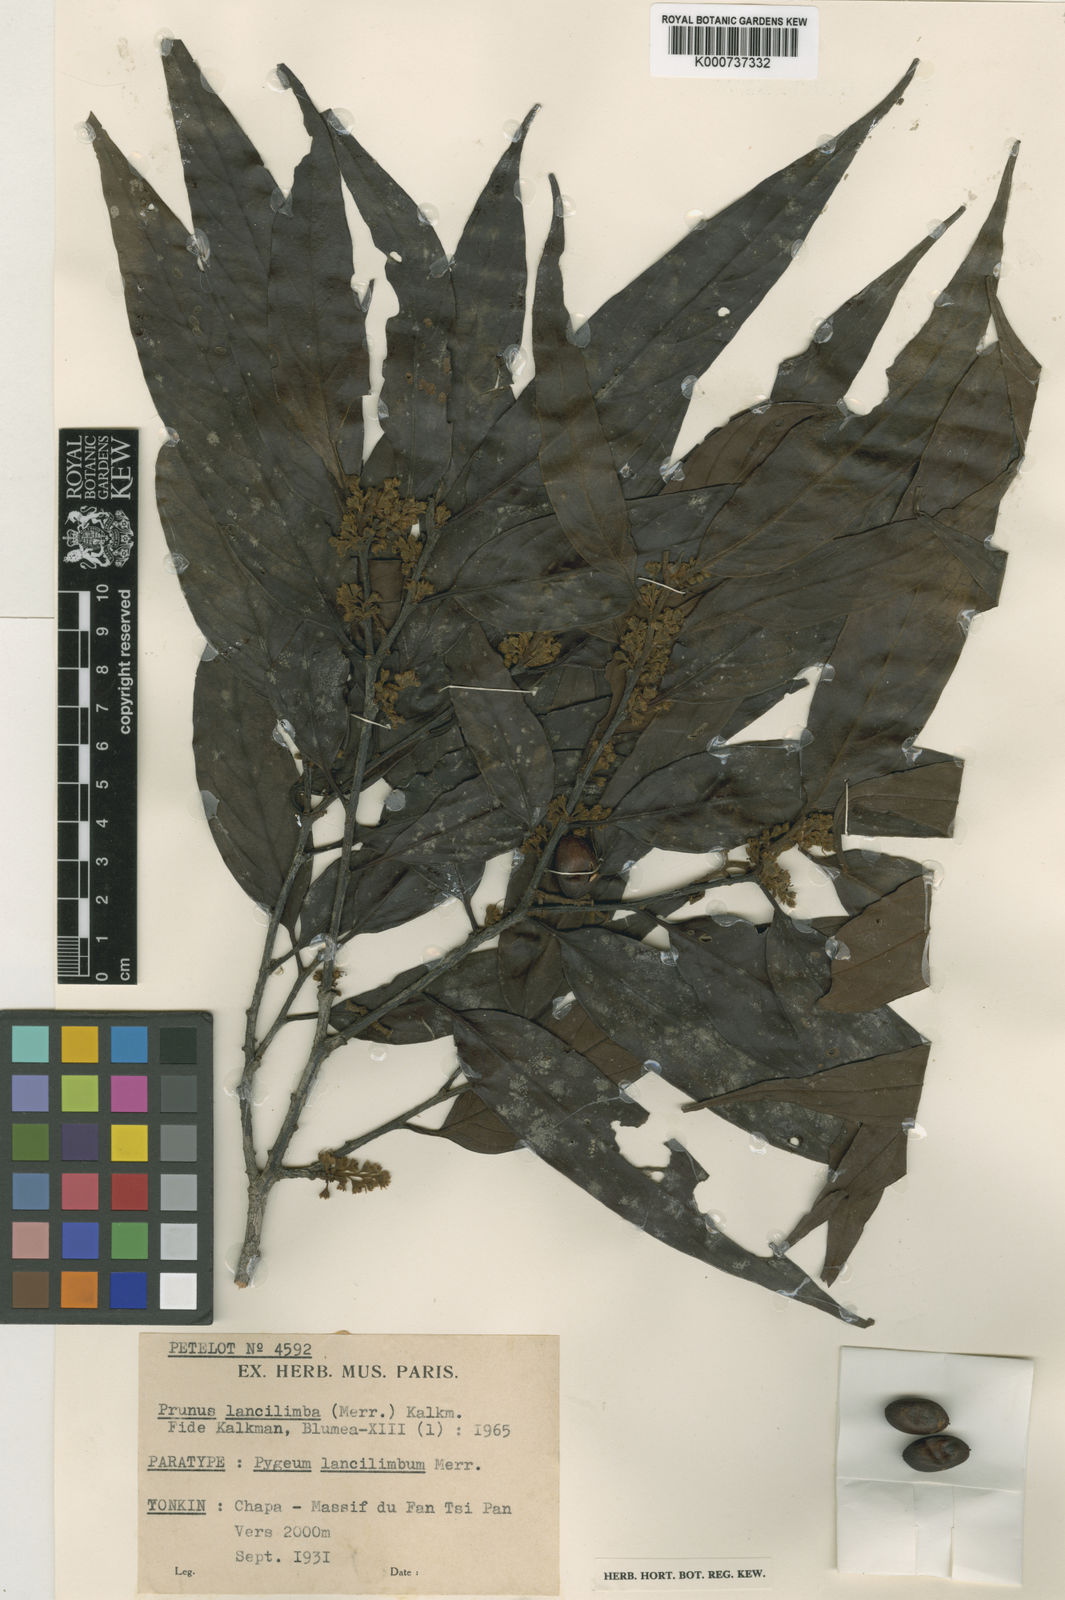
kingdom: Plantae
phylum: Tracheophyta
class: Magnoliopsida
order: Rosales
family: Rosaceae
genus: Prunus
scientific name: Prunus lancilimba
